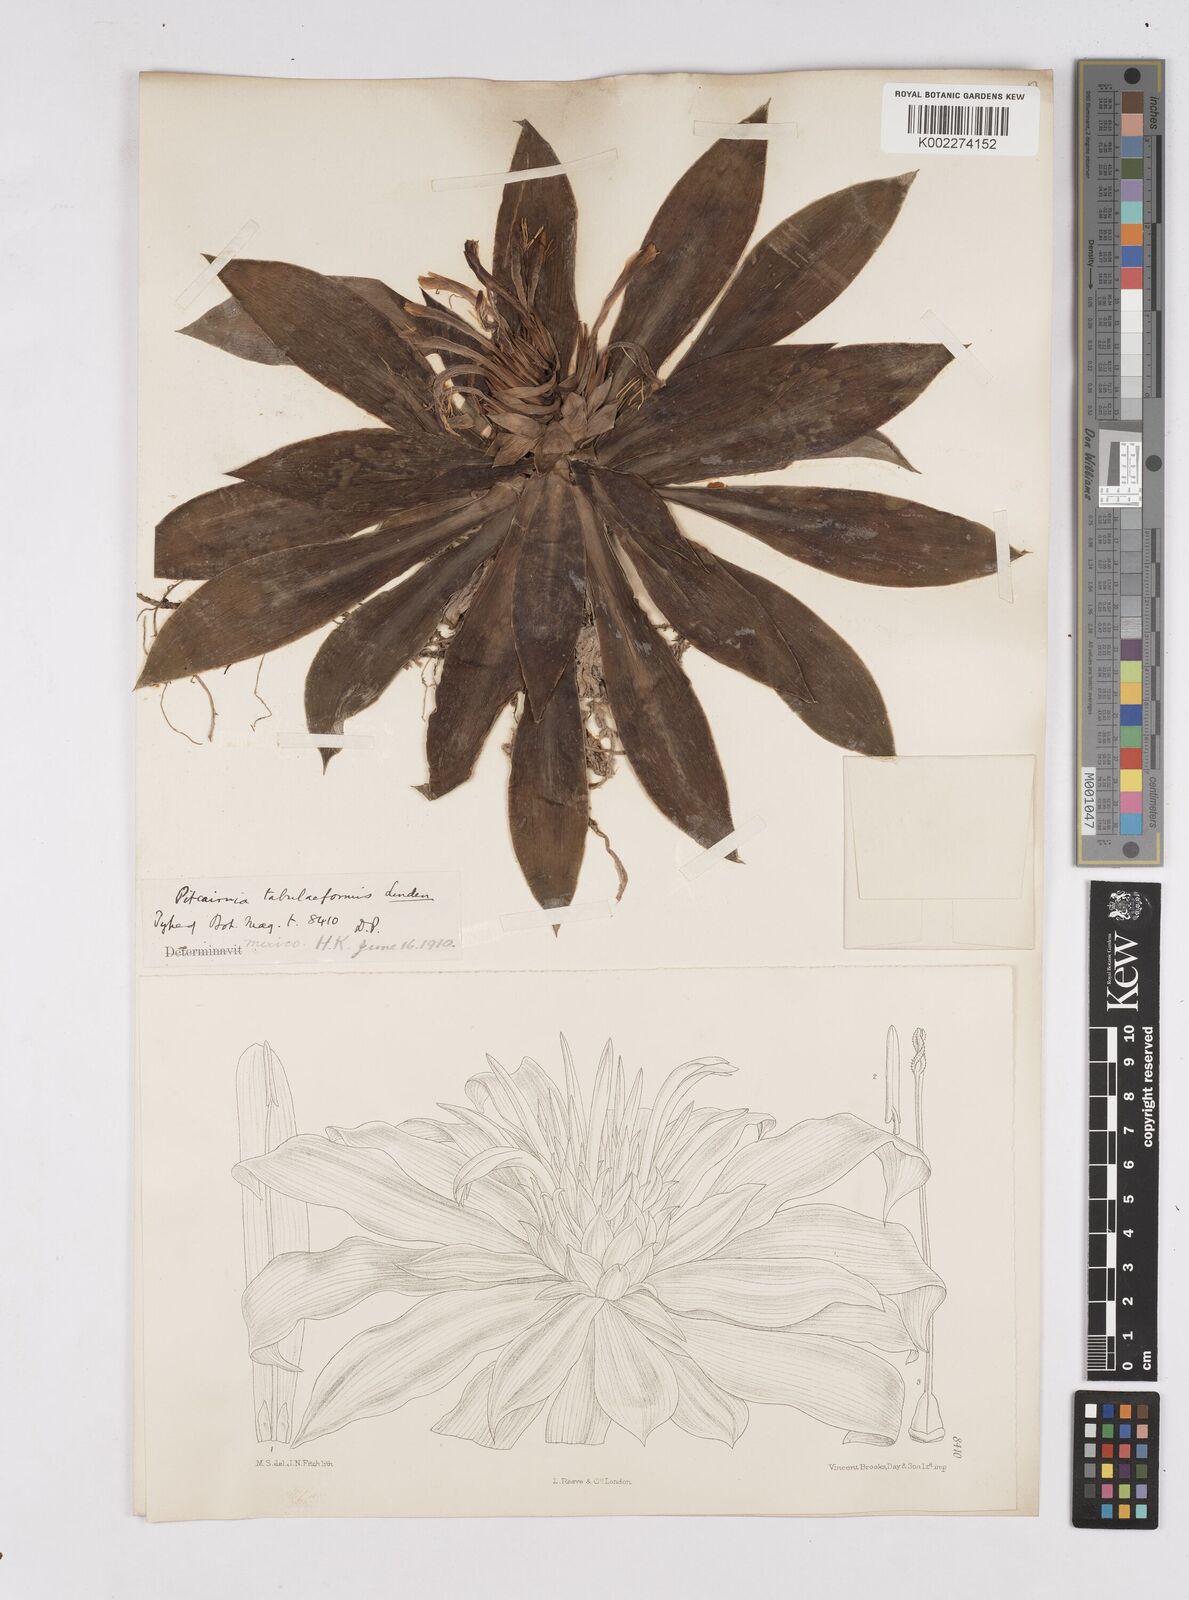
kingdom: Plantae
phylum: Tracheophyta
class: Liliopsida
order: Poales
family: Bromeliaceae
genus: Pitcairnia
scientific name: Pitcairnia tabuliformis
